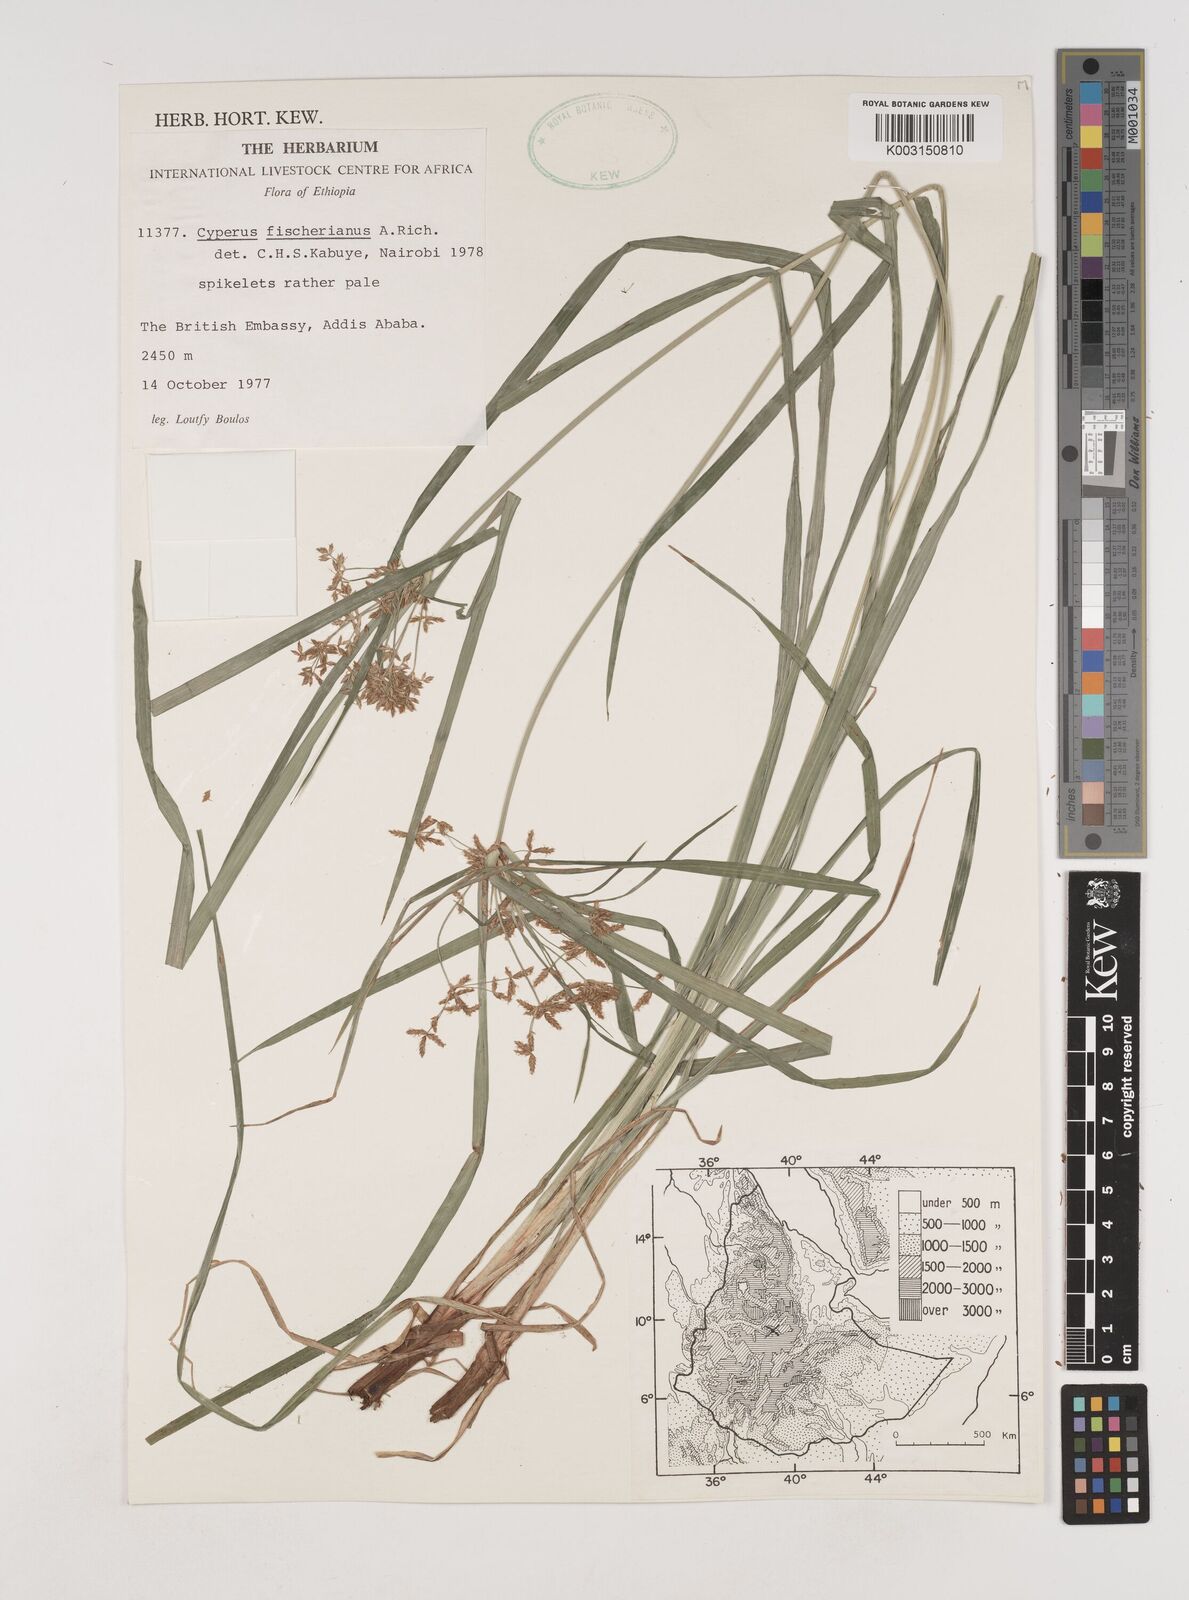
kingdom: Plantae
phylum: Tracheophyta
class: Liliopsida
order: Poales
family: Cyperaceae
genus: Cyperus
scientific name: Cyperus fischerianus
